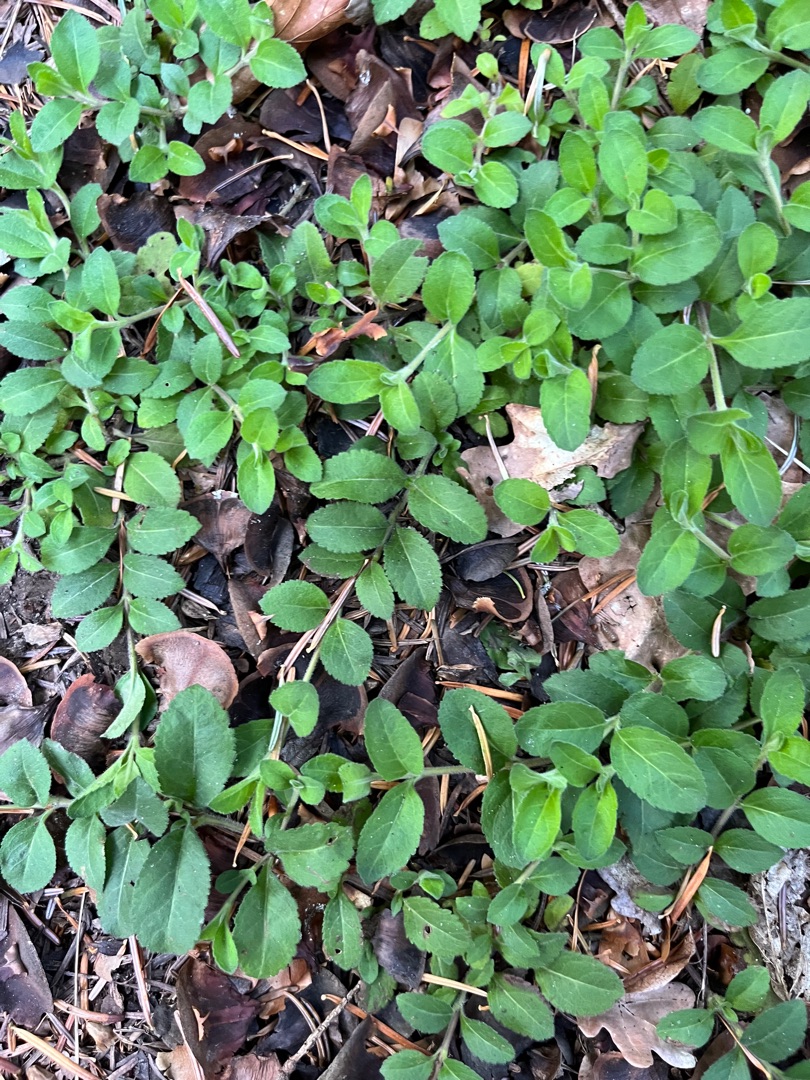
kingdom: Plantae
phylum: Tracheophyta
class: Magnoliopsida
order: Lamiales
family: Plantaginaceae
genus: Veronica
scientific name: Veronica officinalis
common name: Læge-ærenpris
